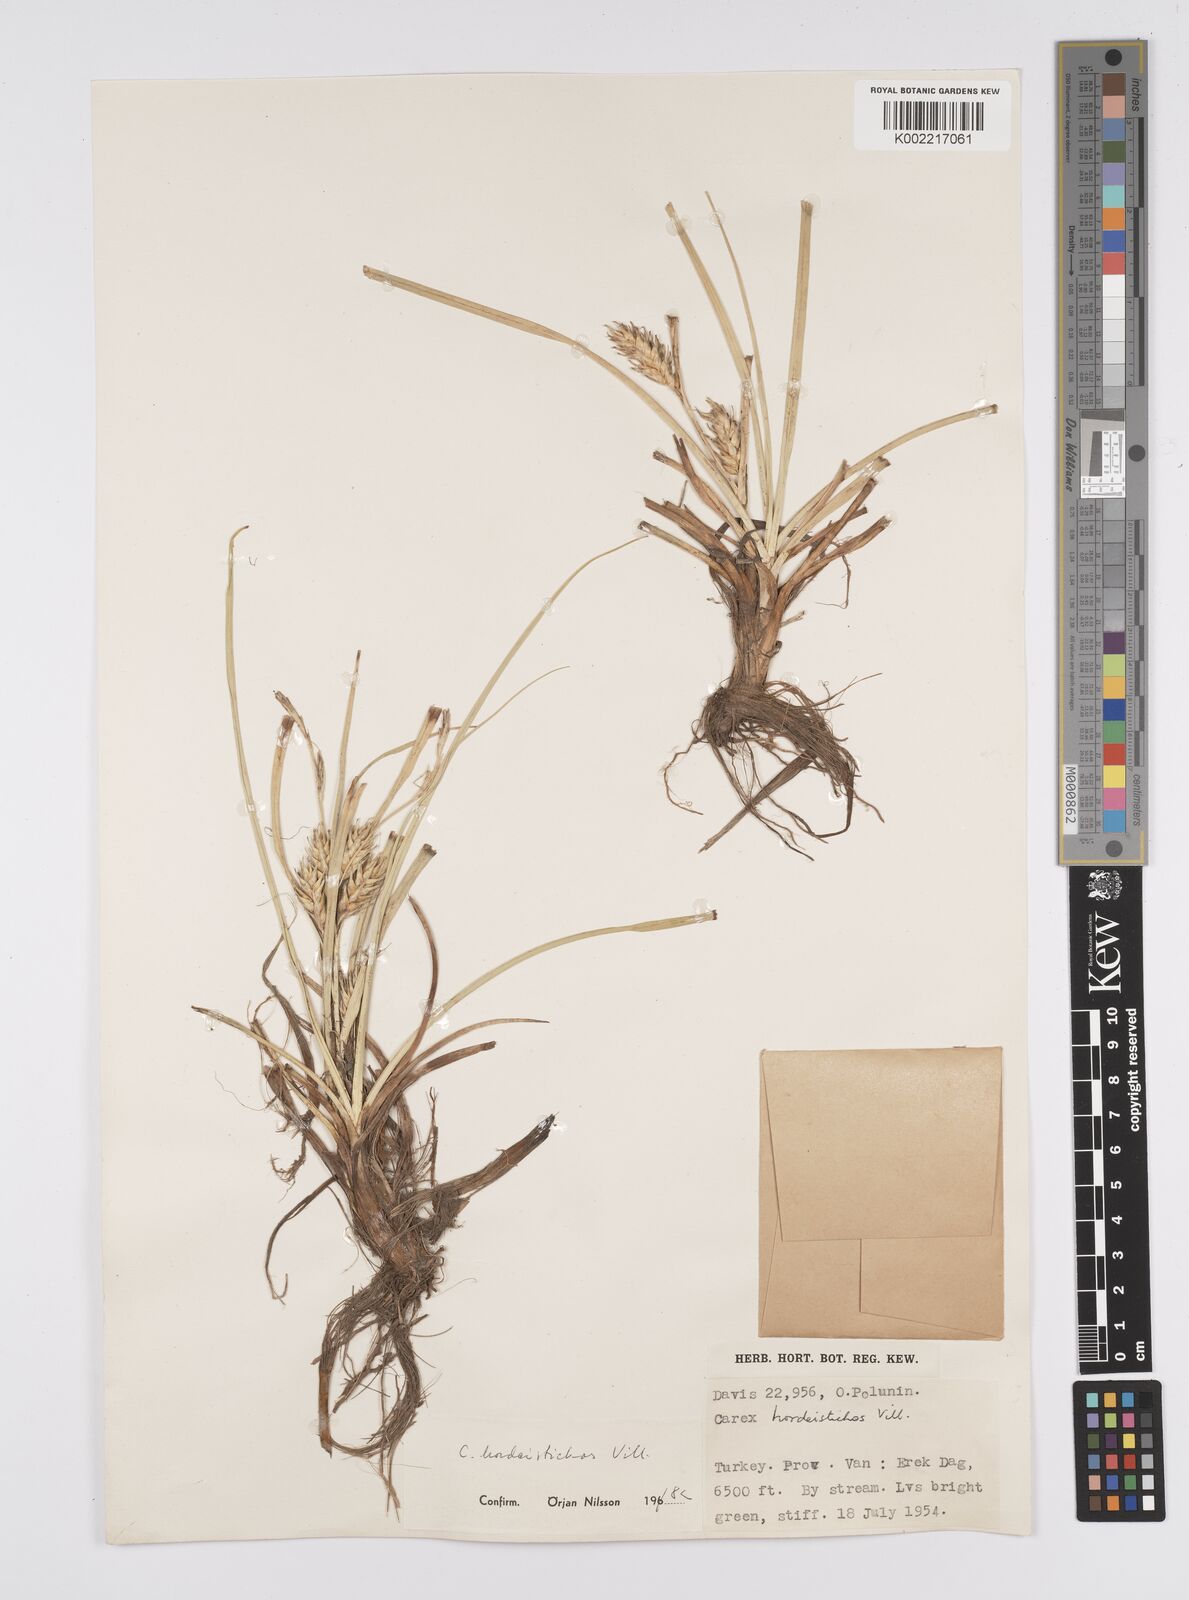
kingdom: Plantae
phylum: Tracheophyta
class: Liliopsida
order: Poales
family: Cyperaceae
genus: Carex
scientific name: Carex hordeistichos
